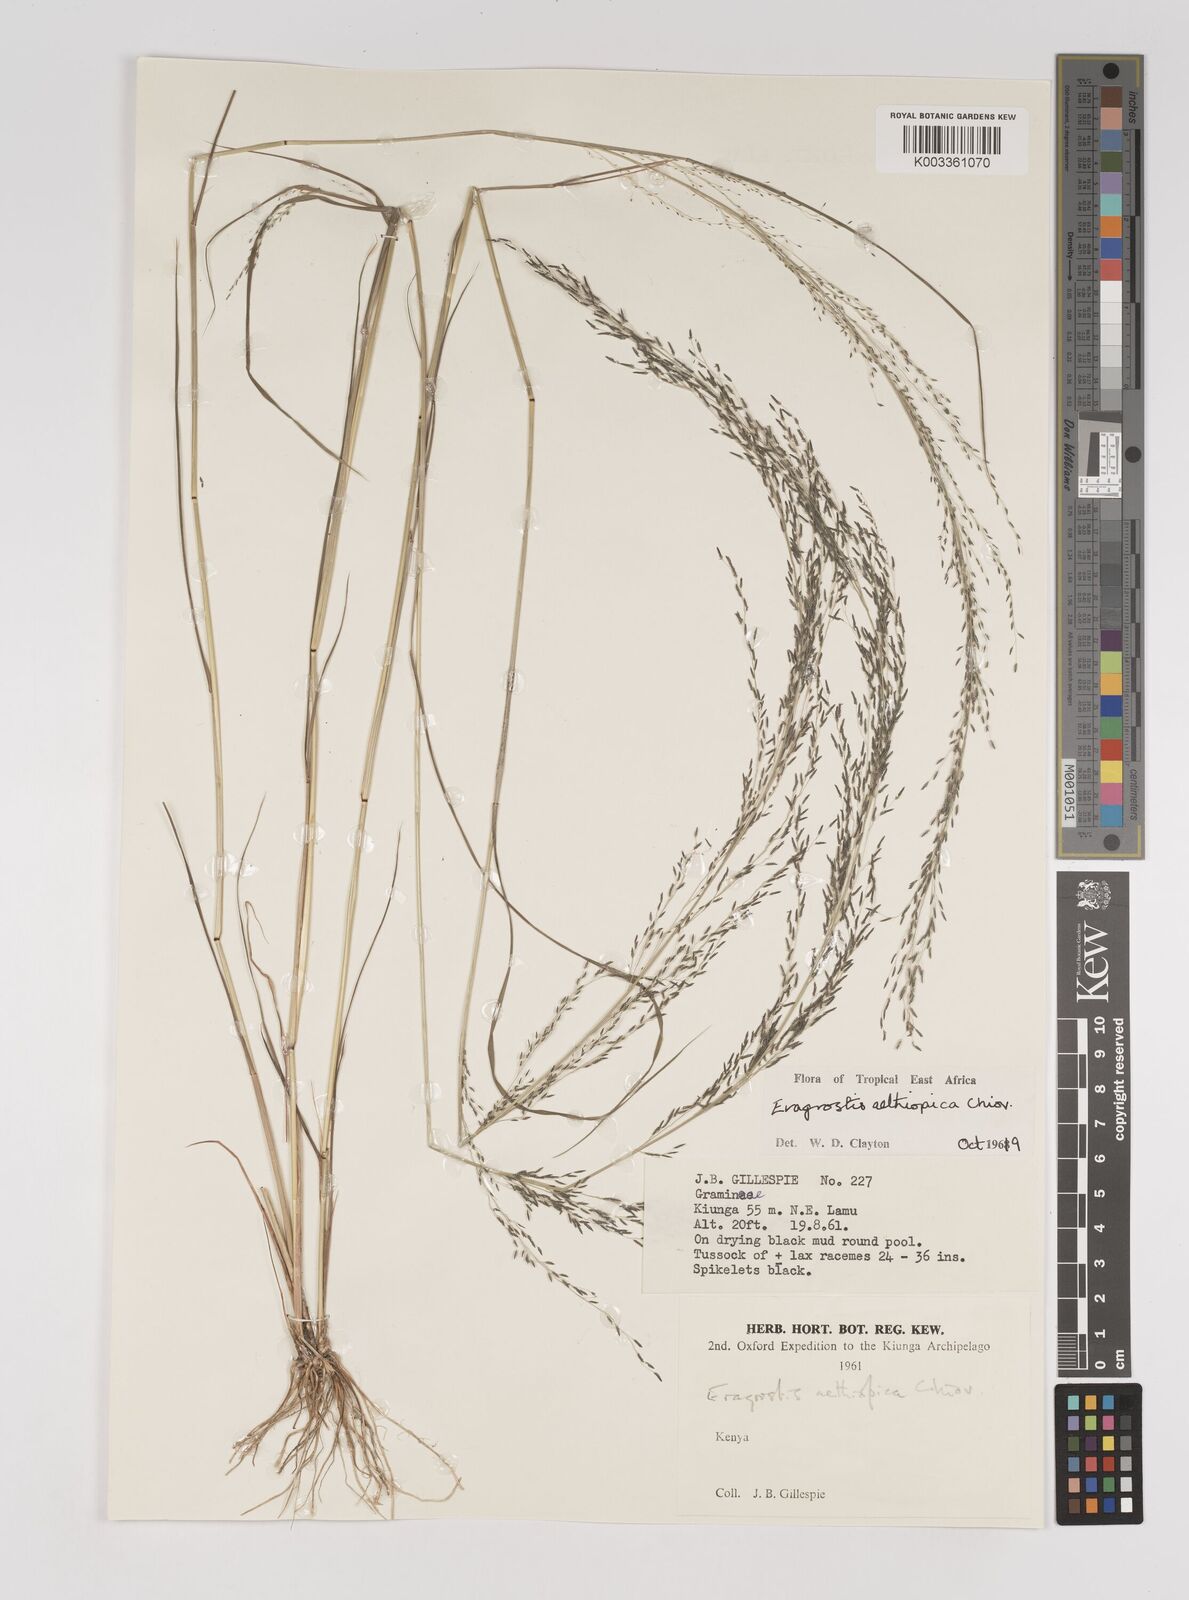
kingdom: Plantae
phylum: Tracheophyta
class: Liliopsida
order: Poales
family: Poaceae
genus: Eragrostis
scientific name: Eragrostis aethiopica
